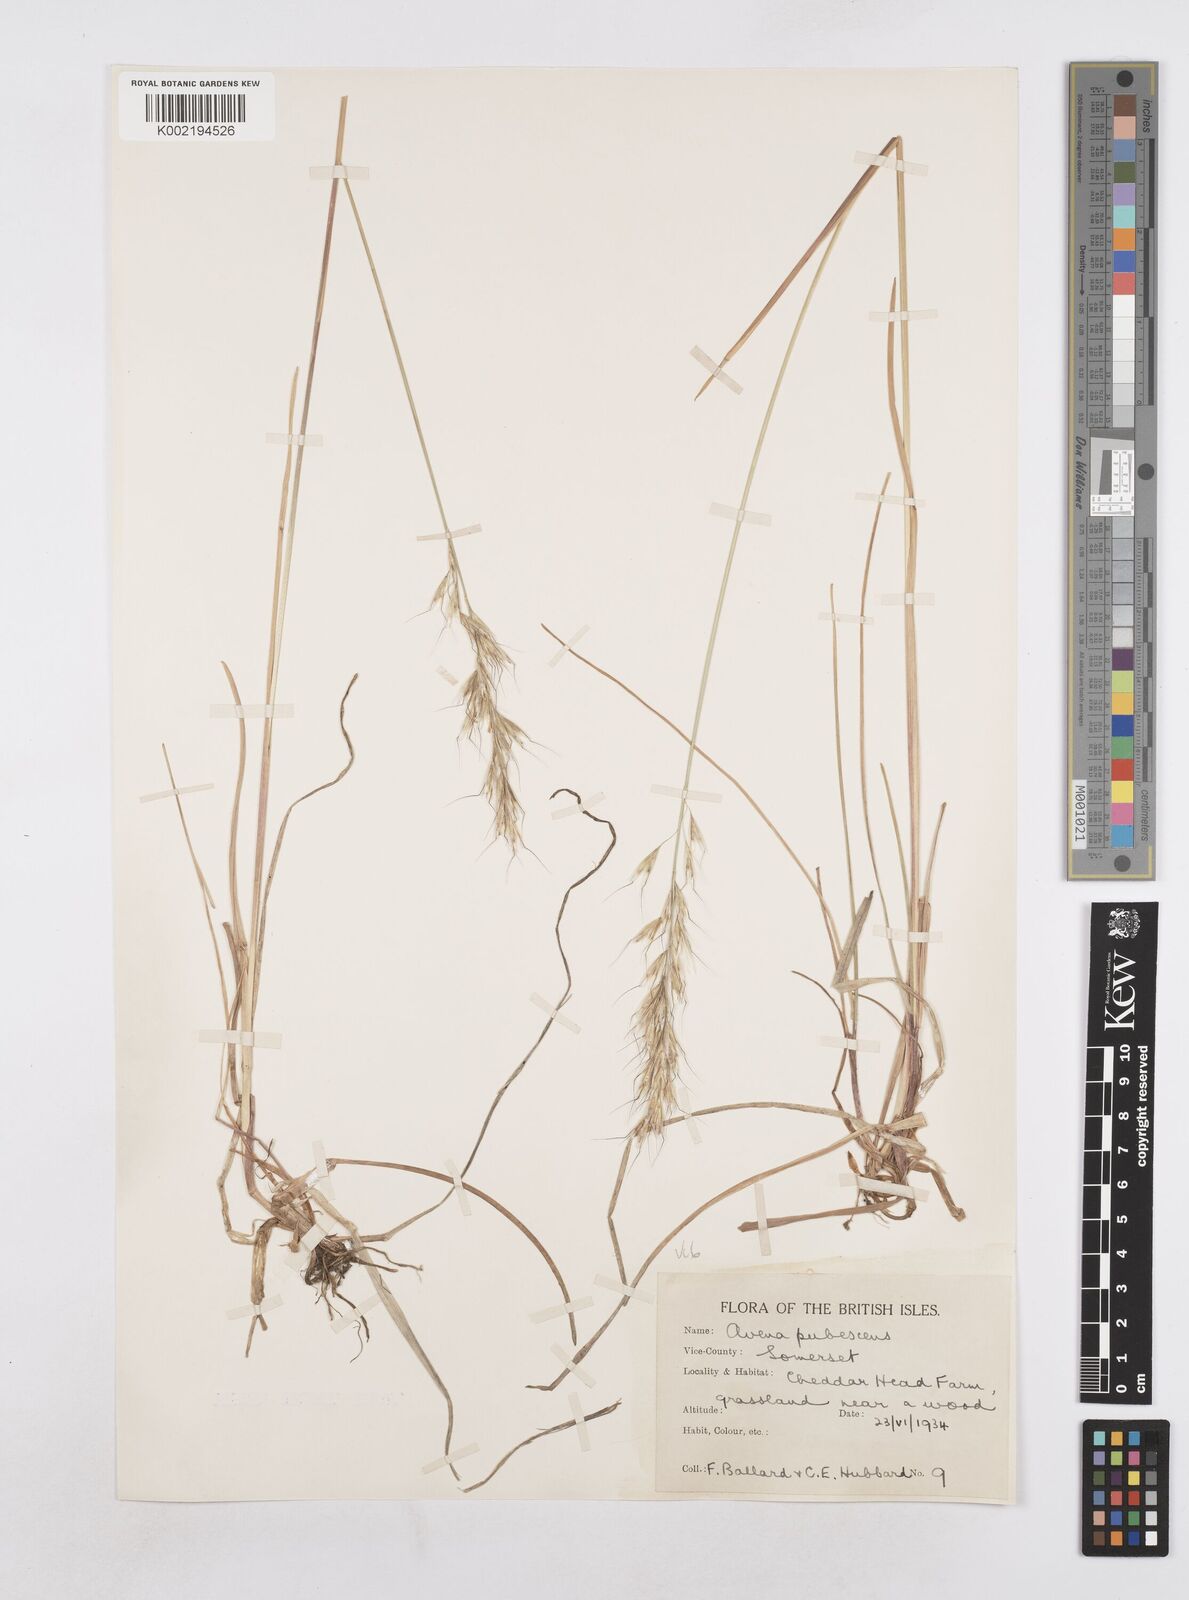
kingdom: Plantae
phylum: Tracheophyta
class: Liliopsida
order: Poales
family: Poaceae
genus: Avenula
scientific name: Avenula pubescens
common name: Downy alpine oatgrass
